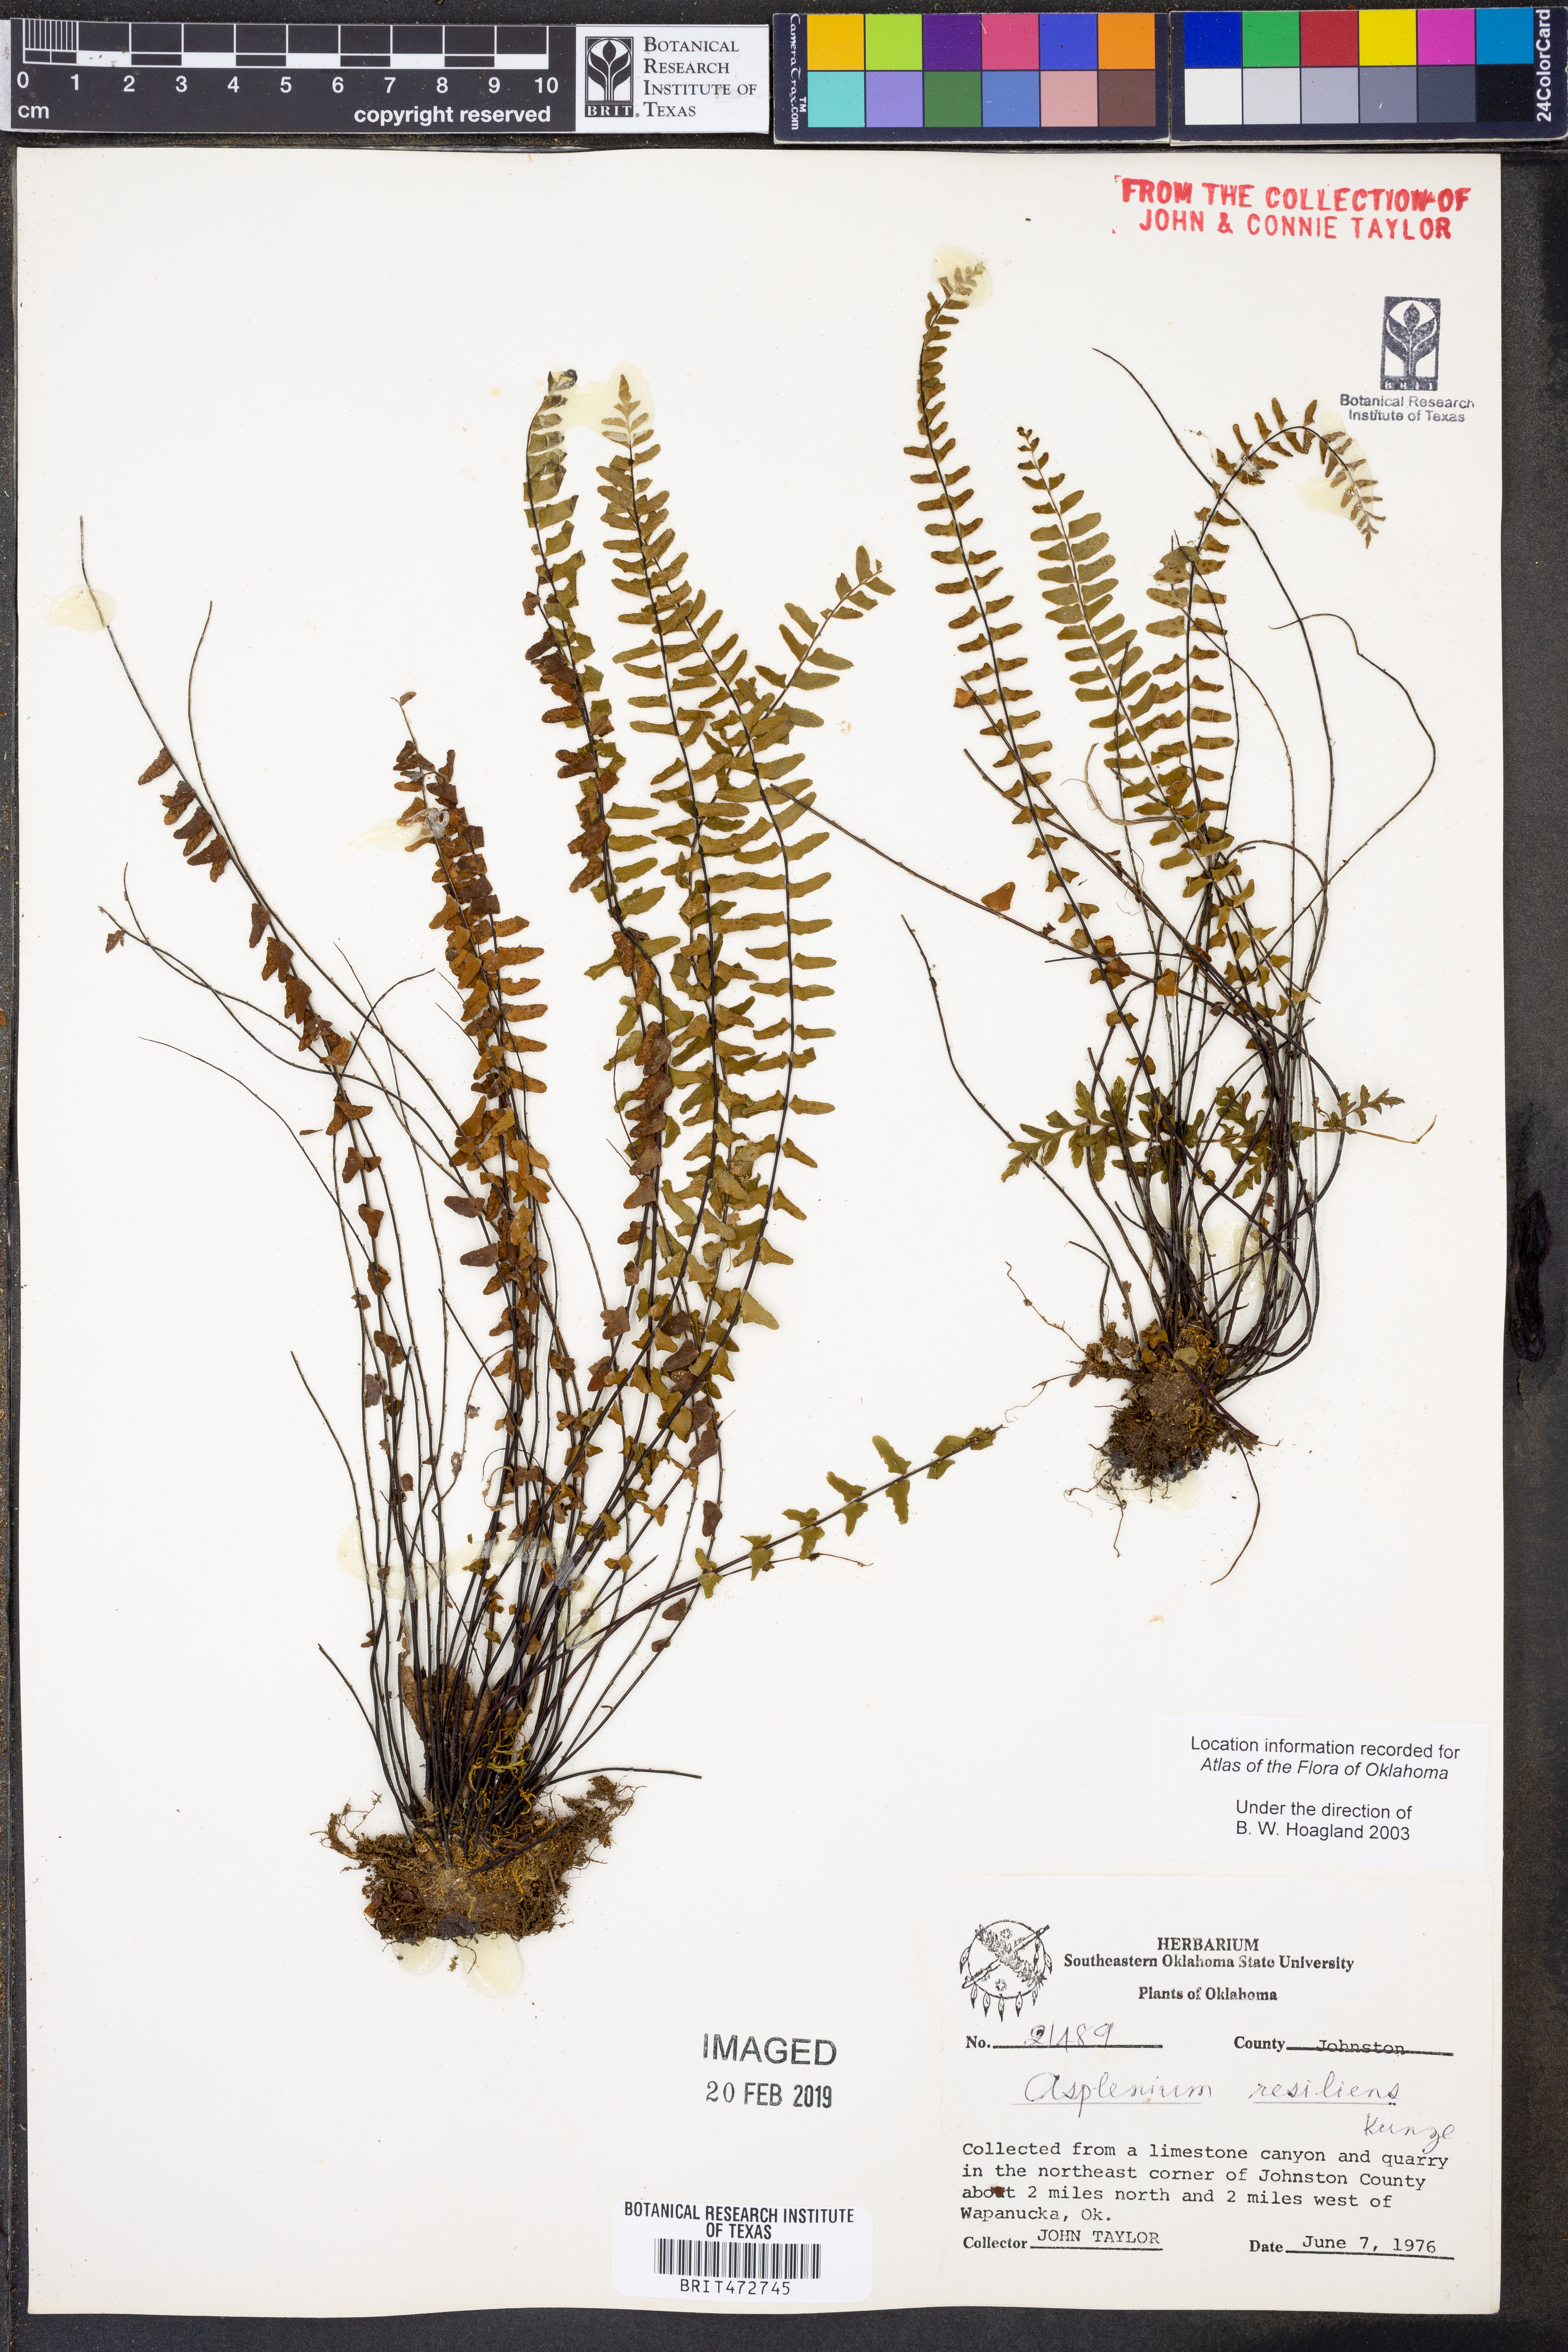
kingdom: Plantae
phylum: Tracheophyta
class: Polypodiopsida
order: Polypodiales
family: Aspleniaceae
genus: Asplenium
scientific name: Asplenium resiliens
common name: Blackstem spleenwort
